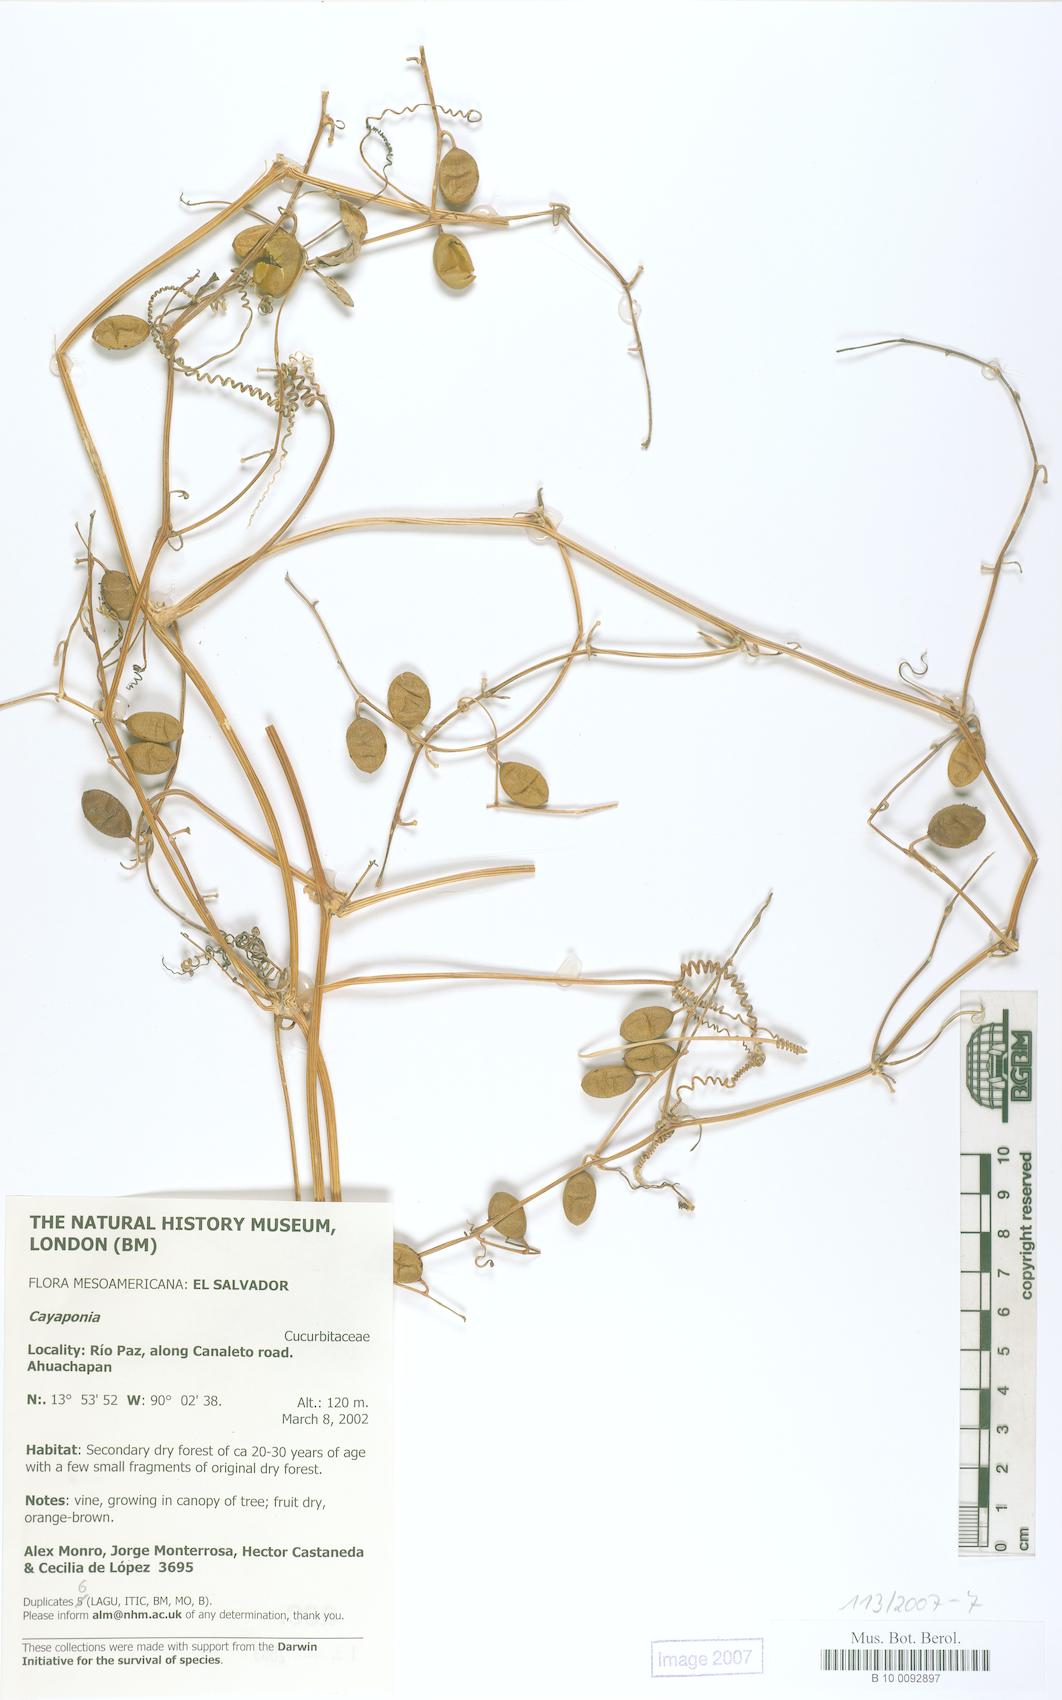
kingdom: Plantae
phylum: Tracheophyta
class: Magnoliopsida
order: Cucurbitales
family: Cucurbitaceae
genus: Cayaponia
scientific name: Cayaponia racemosa
